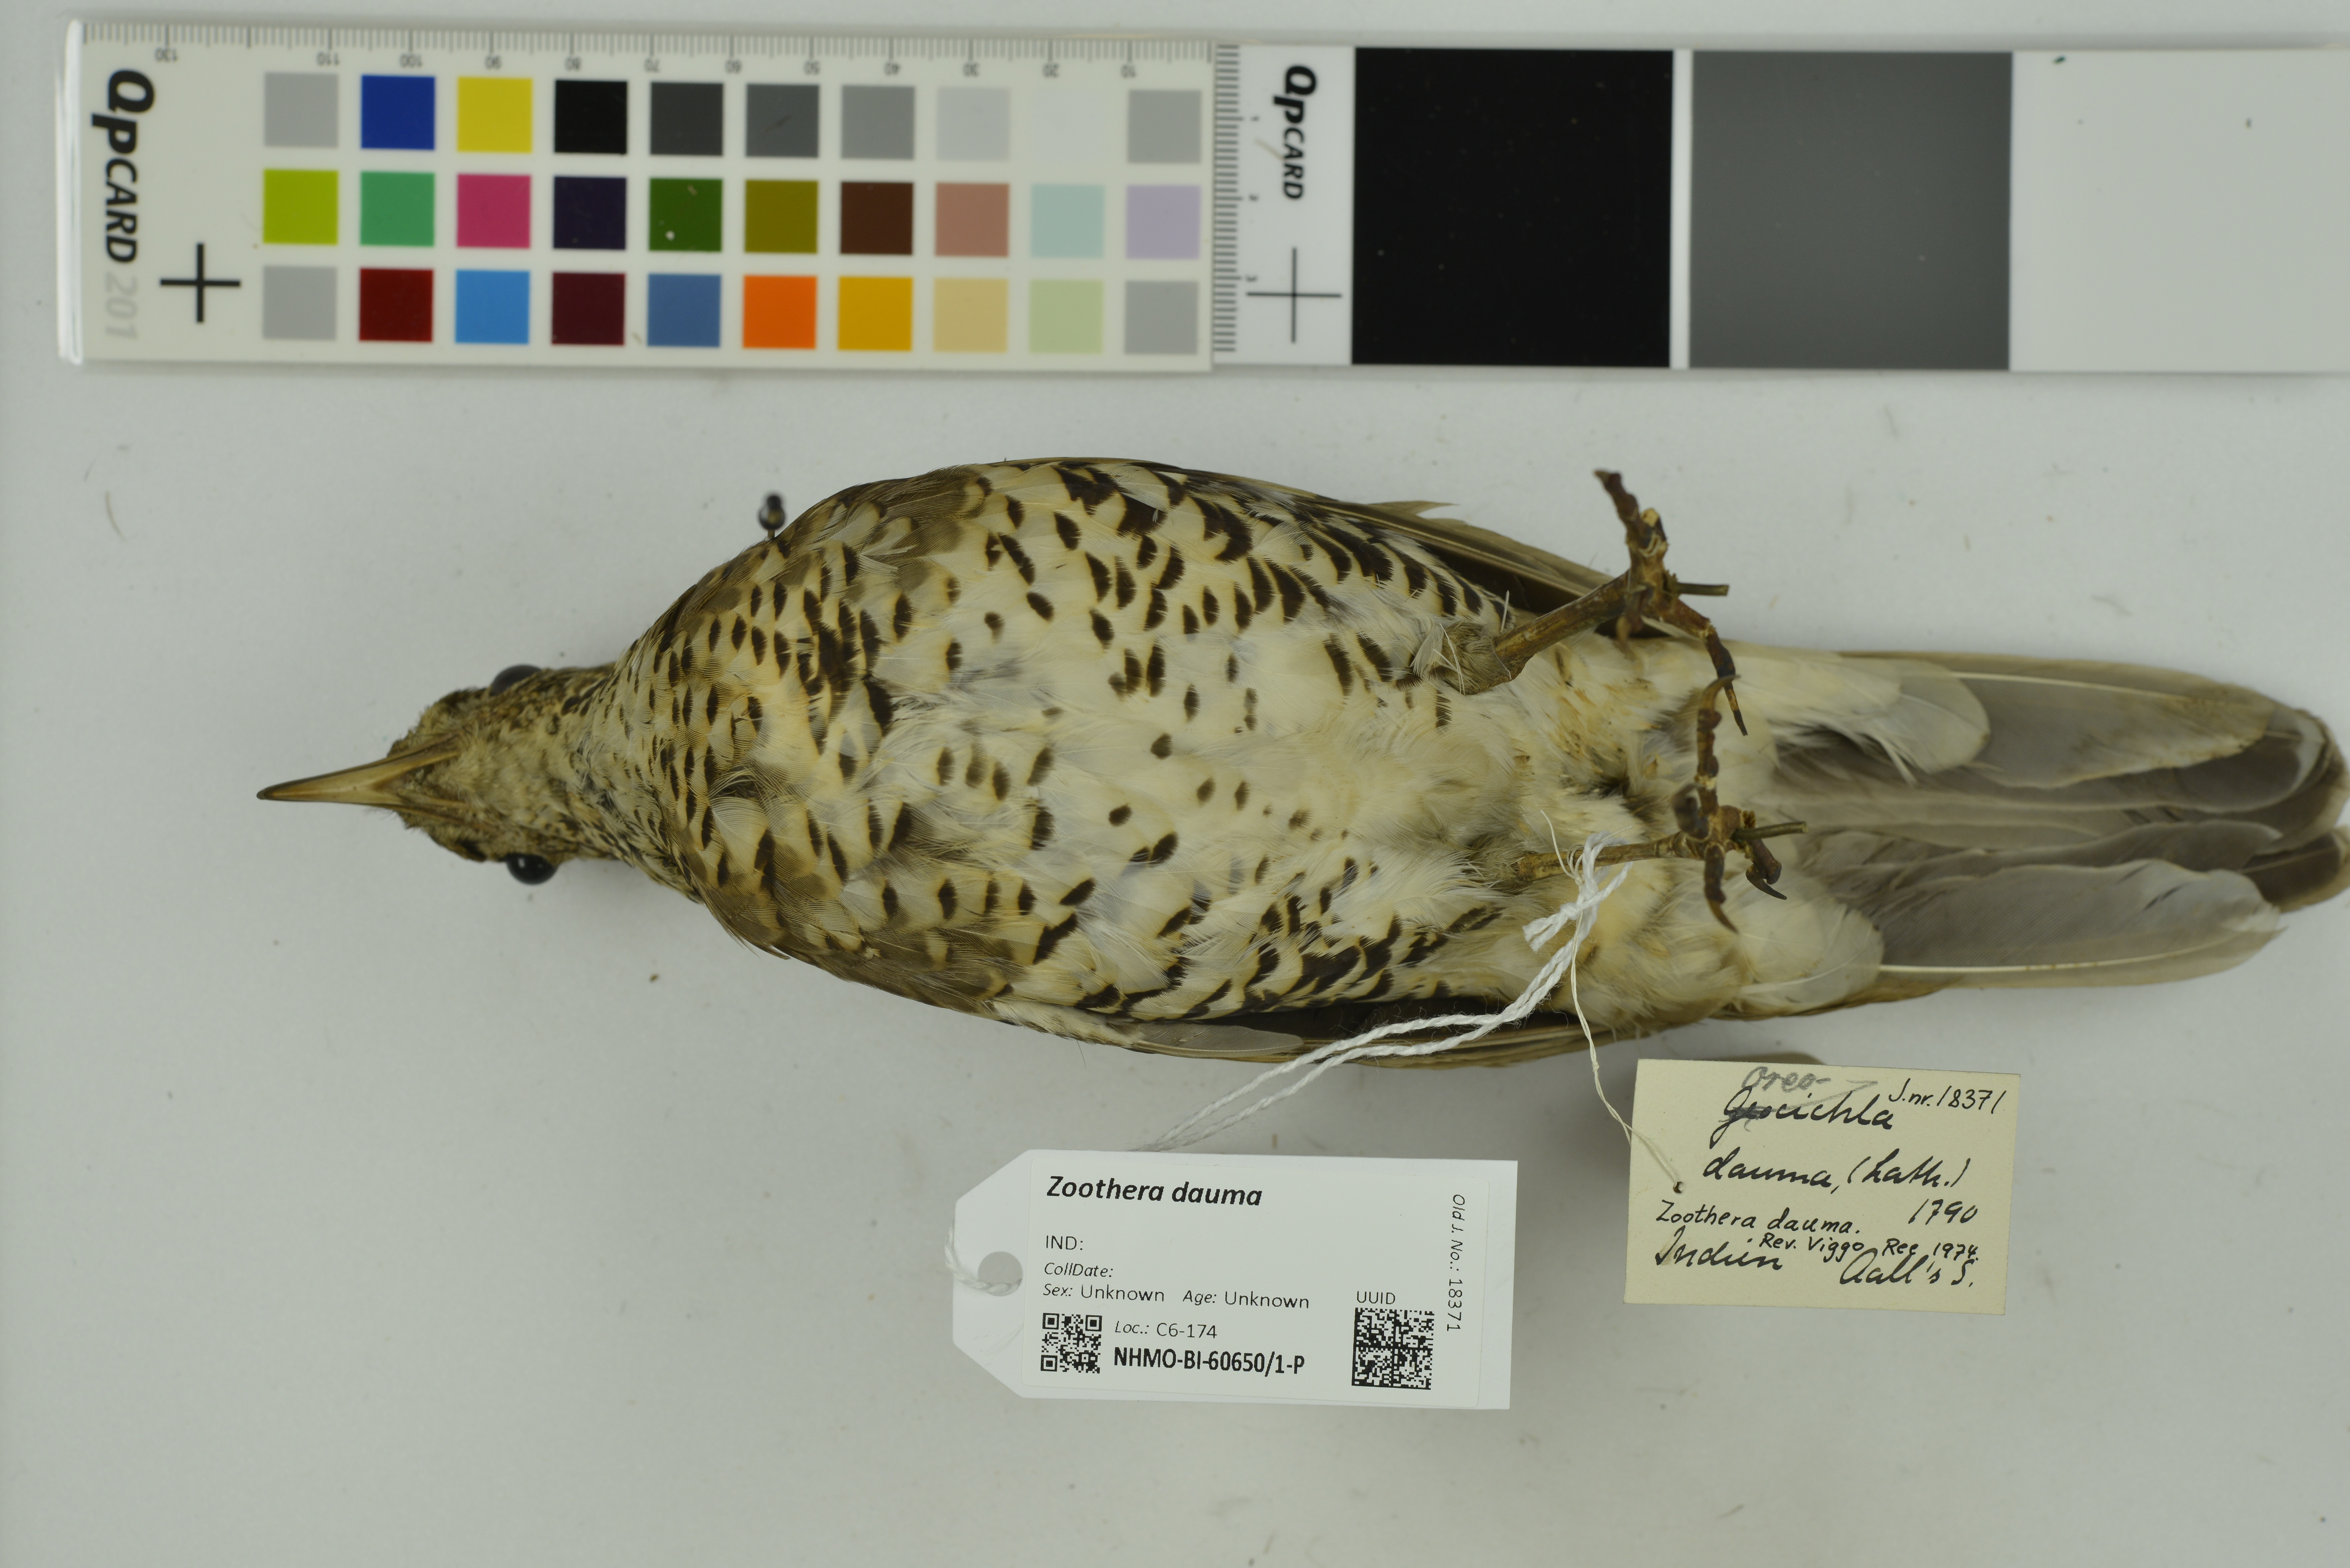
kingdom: Animalia
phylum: Chordata
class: Aves
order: Passeriformes
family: Turdidae
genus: Zoothera
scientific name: Zoothera dauma
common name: Scaly thrush
